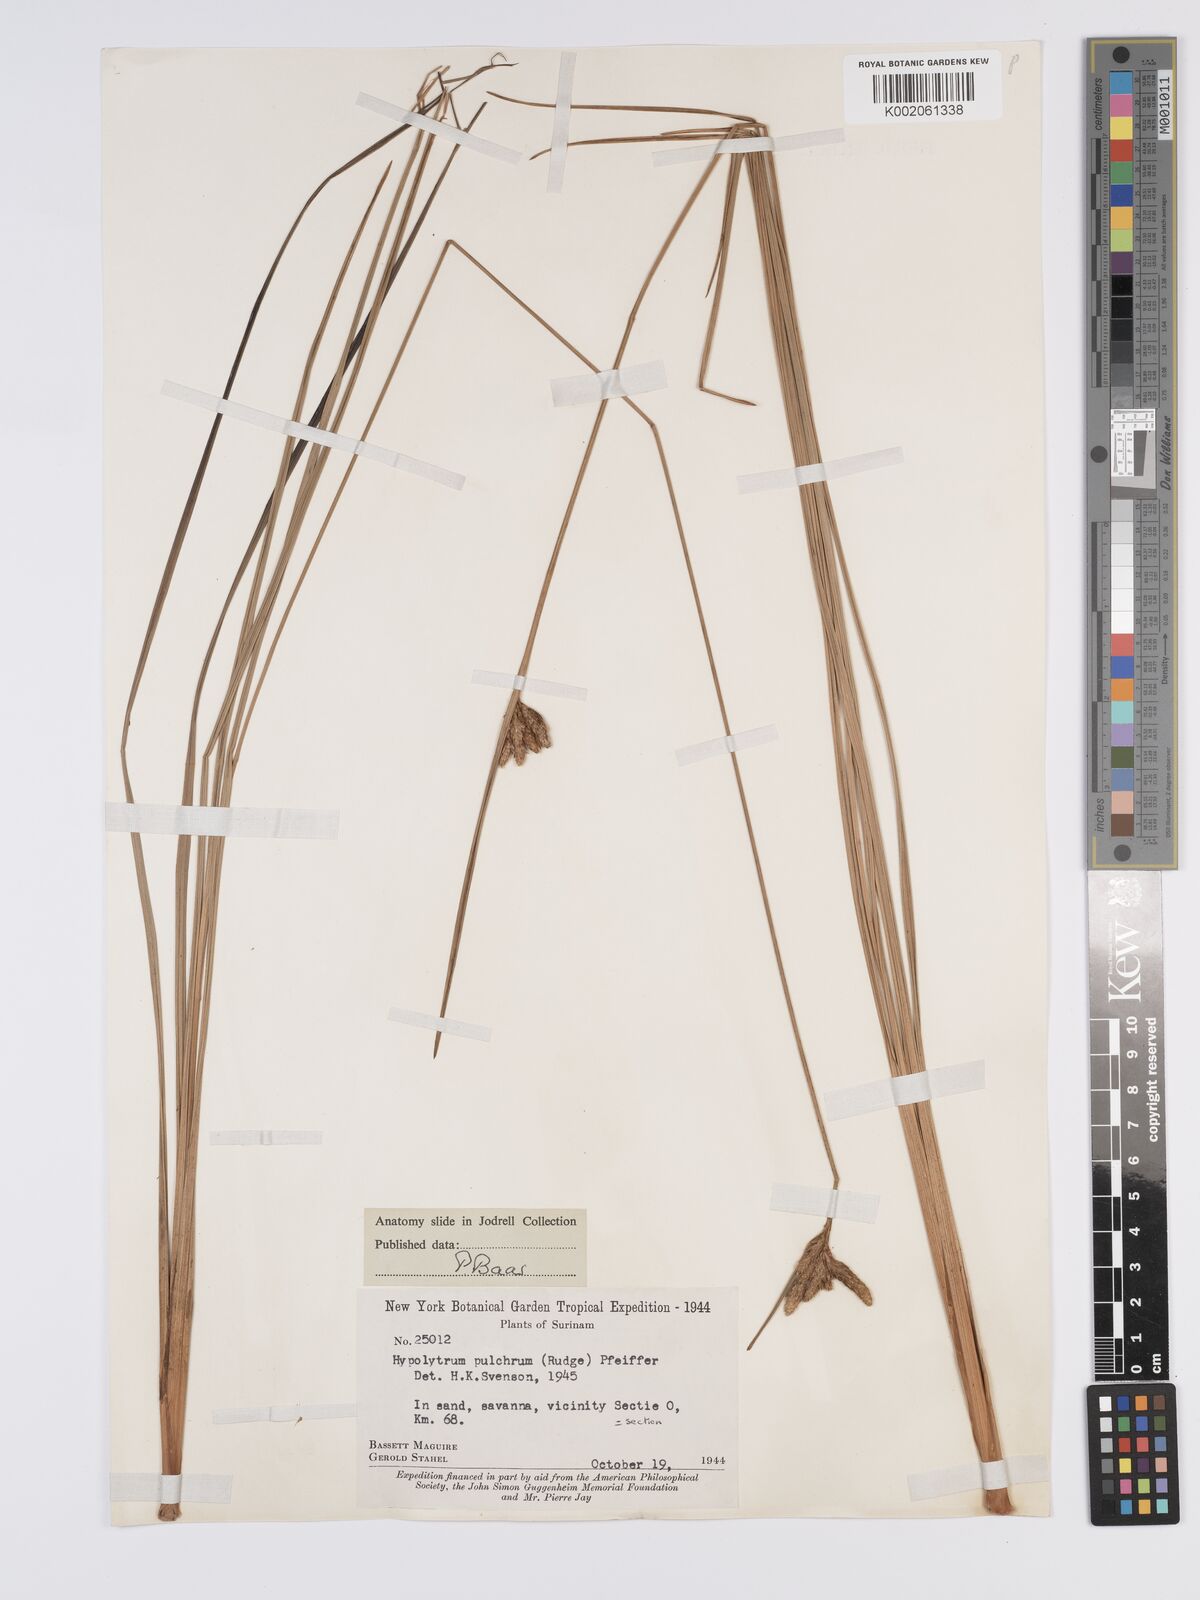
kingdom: Plantae
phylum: Tracheophyta
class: Liliopsida
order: Poales
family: Cyperaceae
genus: Hypolytrum
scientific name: Hypolytrum pulchrum
